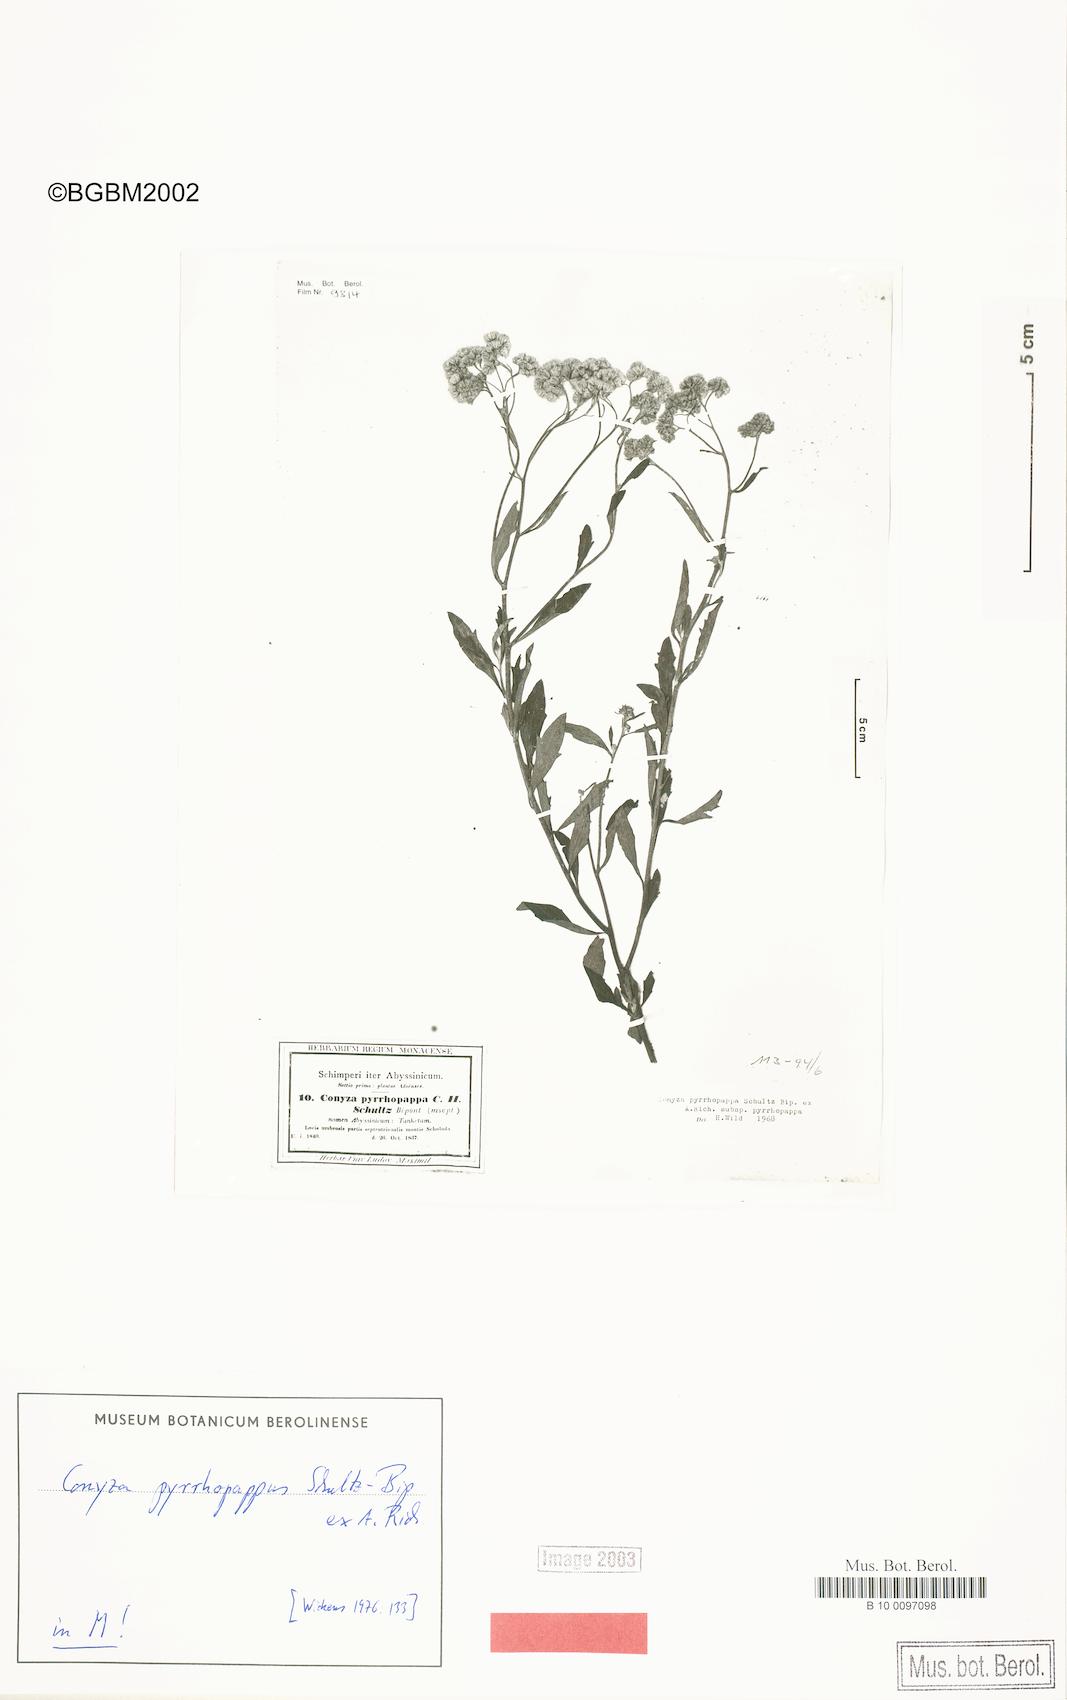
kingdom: Plantae
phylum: Tracheophyta
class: Magnoliopsida
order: Asterales
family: Asteraceae
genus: Microglossa
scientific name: Microglossa pyrrhopappa
